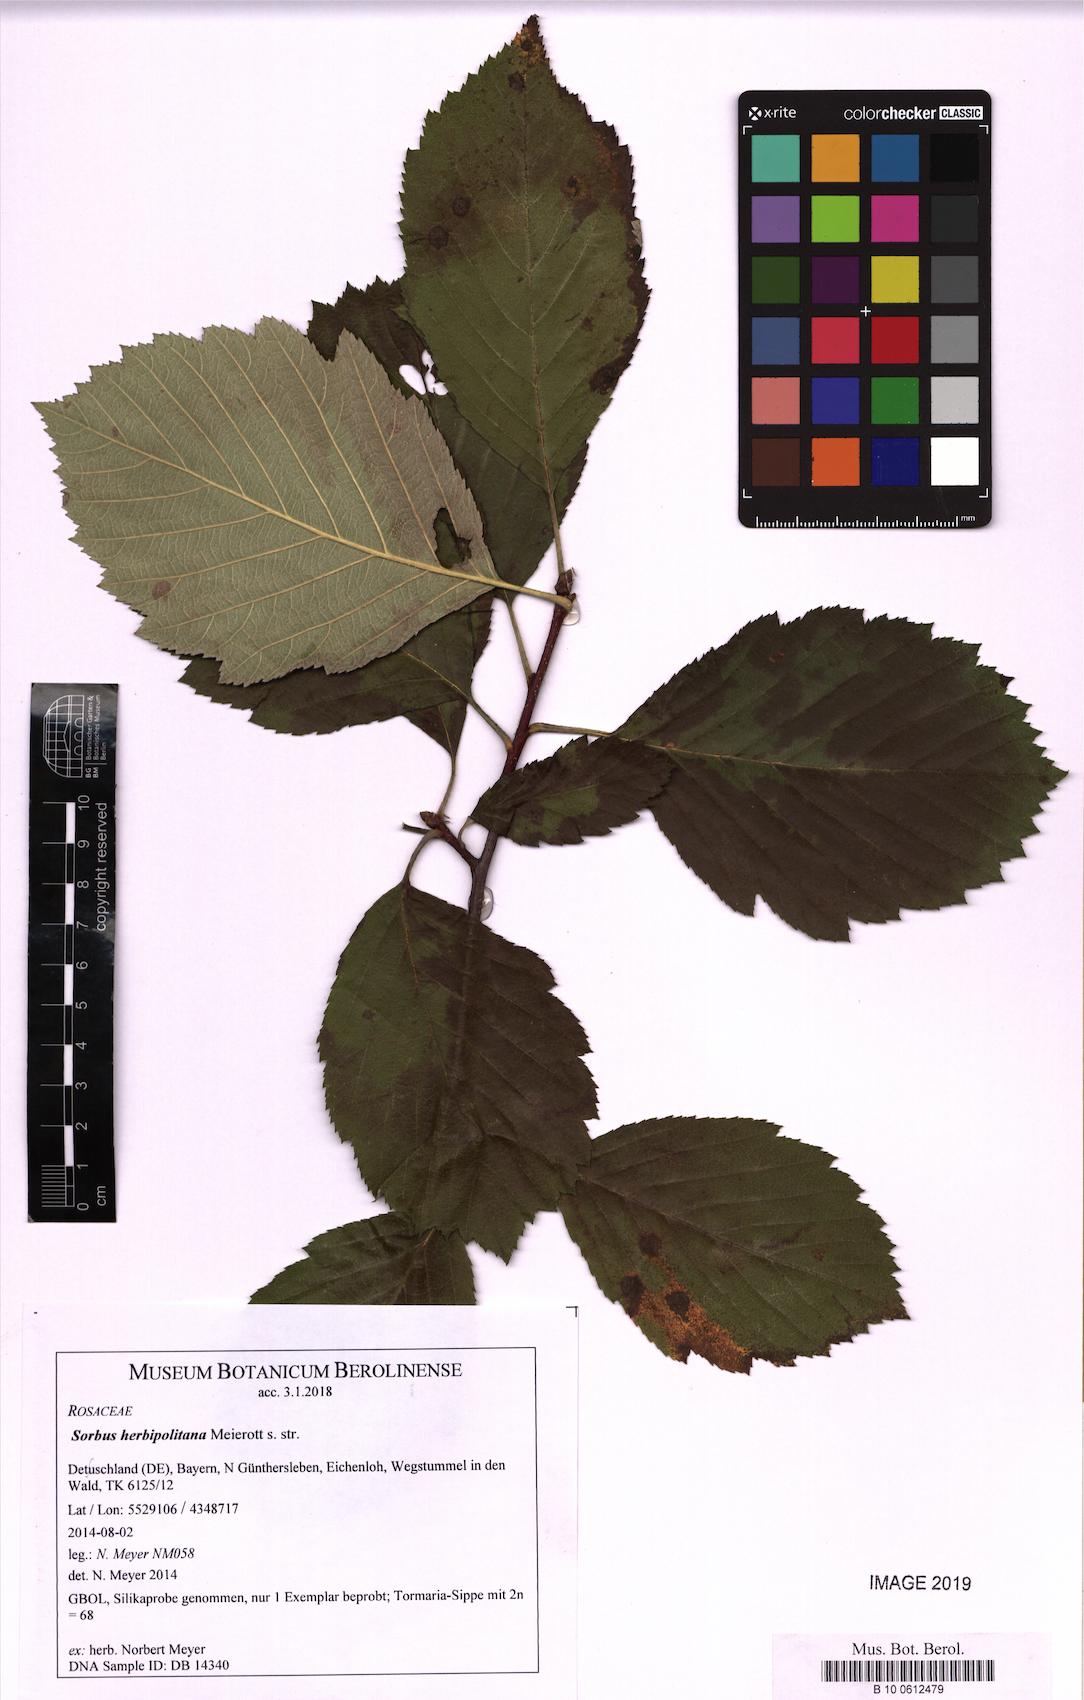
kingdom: Plantae
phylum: Tracheophyta
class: Magnoliopsida
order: Rosales
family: Rosaceae
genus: Karpatiosorbus
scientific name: Karpatiosorbus herbipolitana
